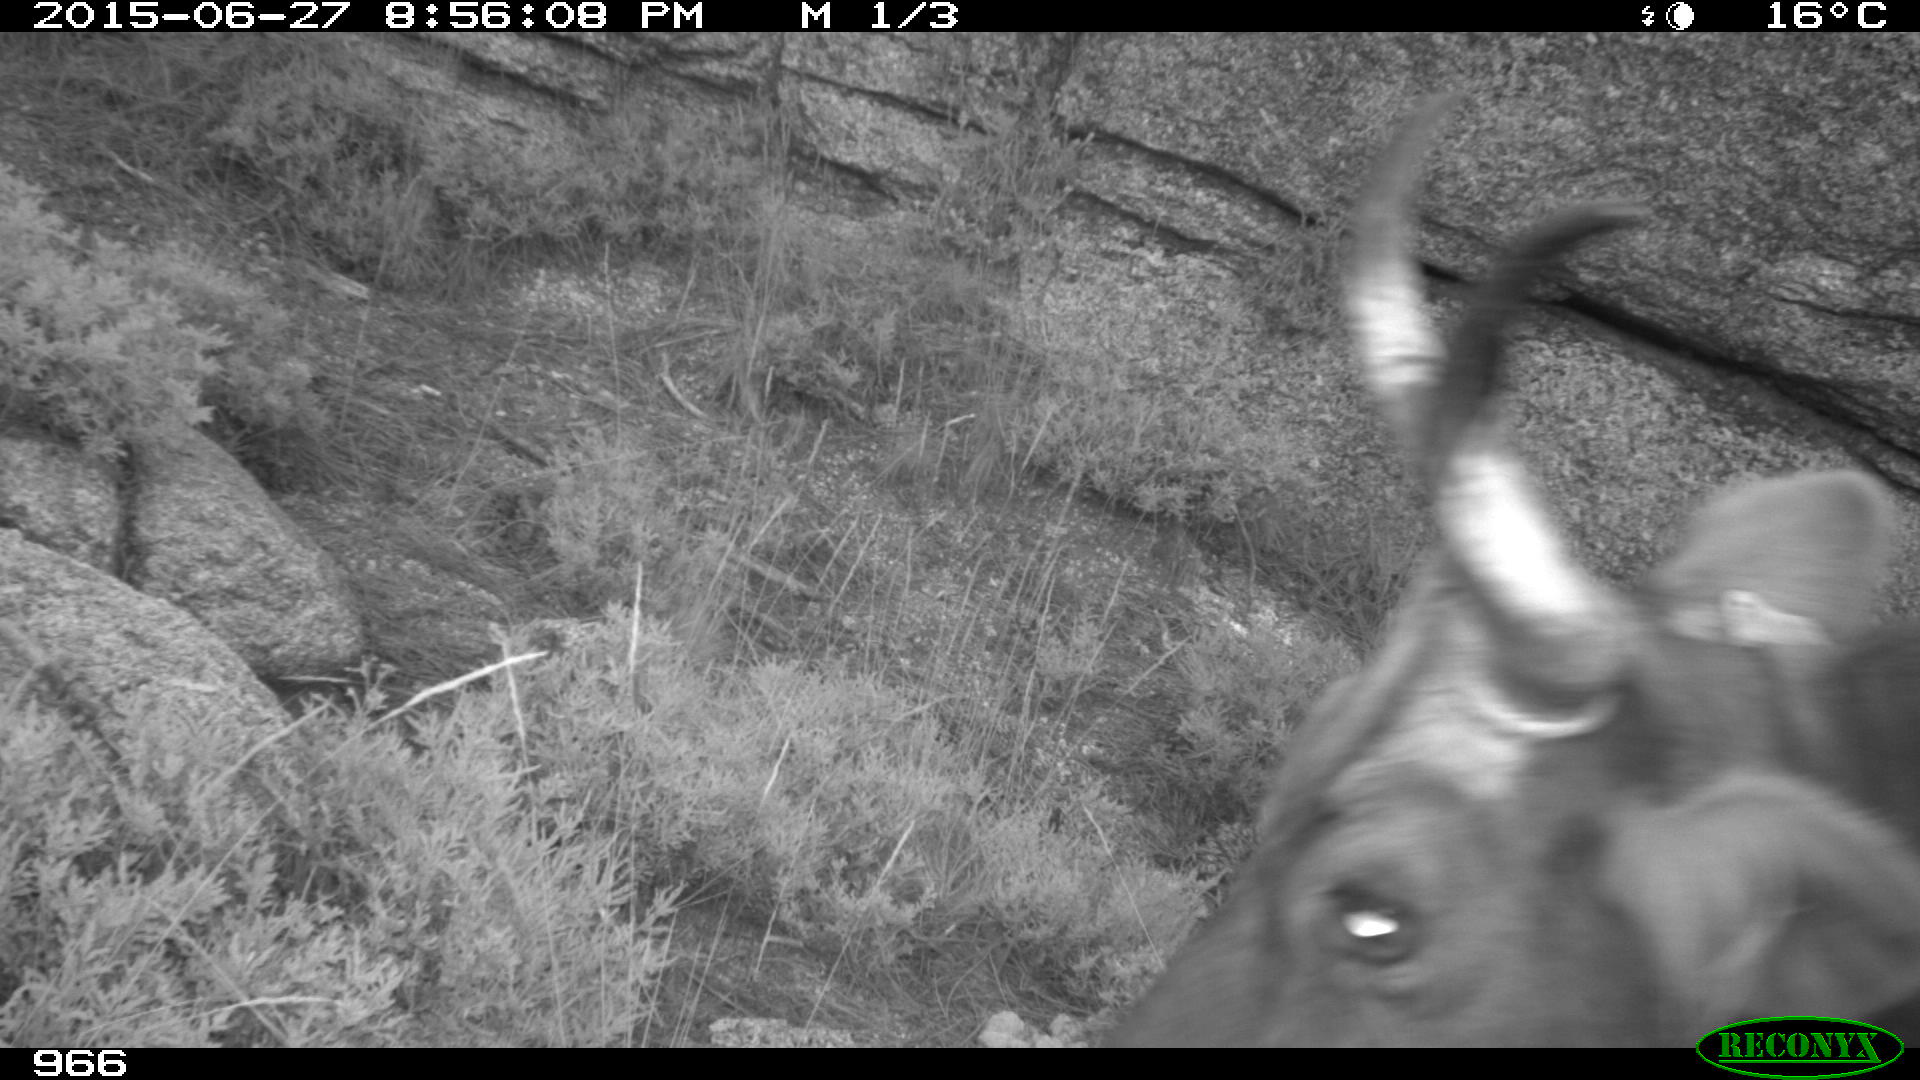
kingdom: Animalia
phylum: Chordata
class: Mammalia
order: Artiodactyla
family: Bovidae
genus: Bos
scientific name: Bos taurus
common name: Domesticated cattle
